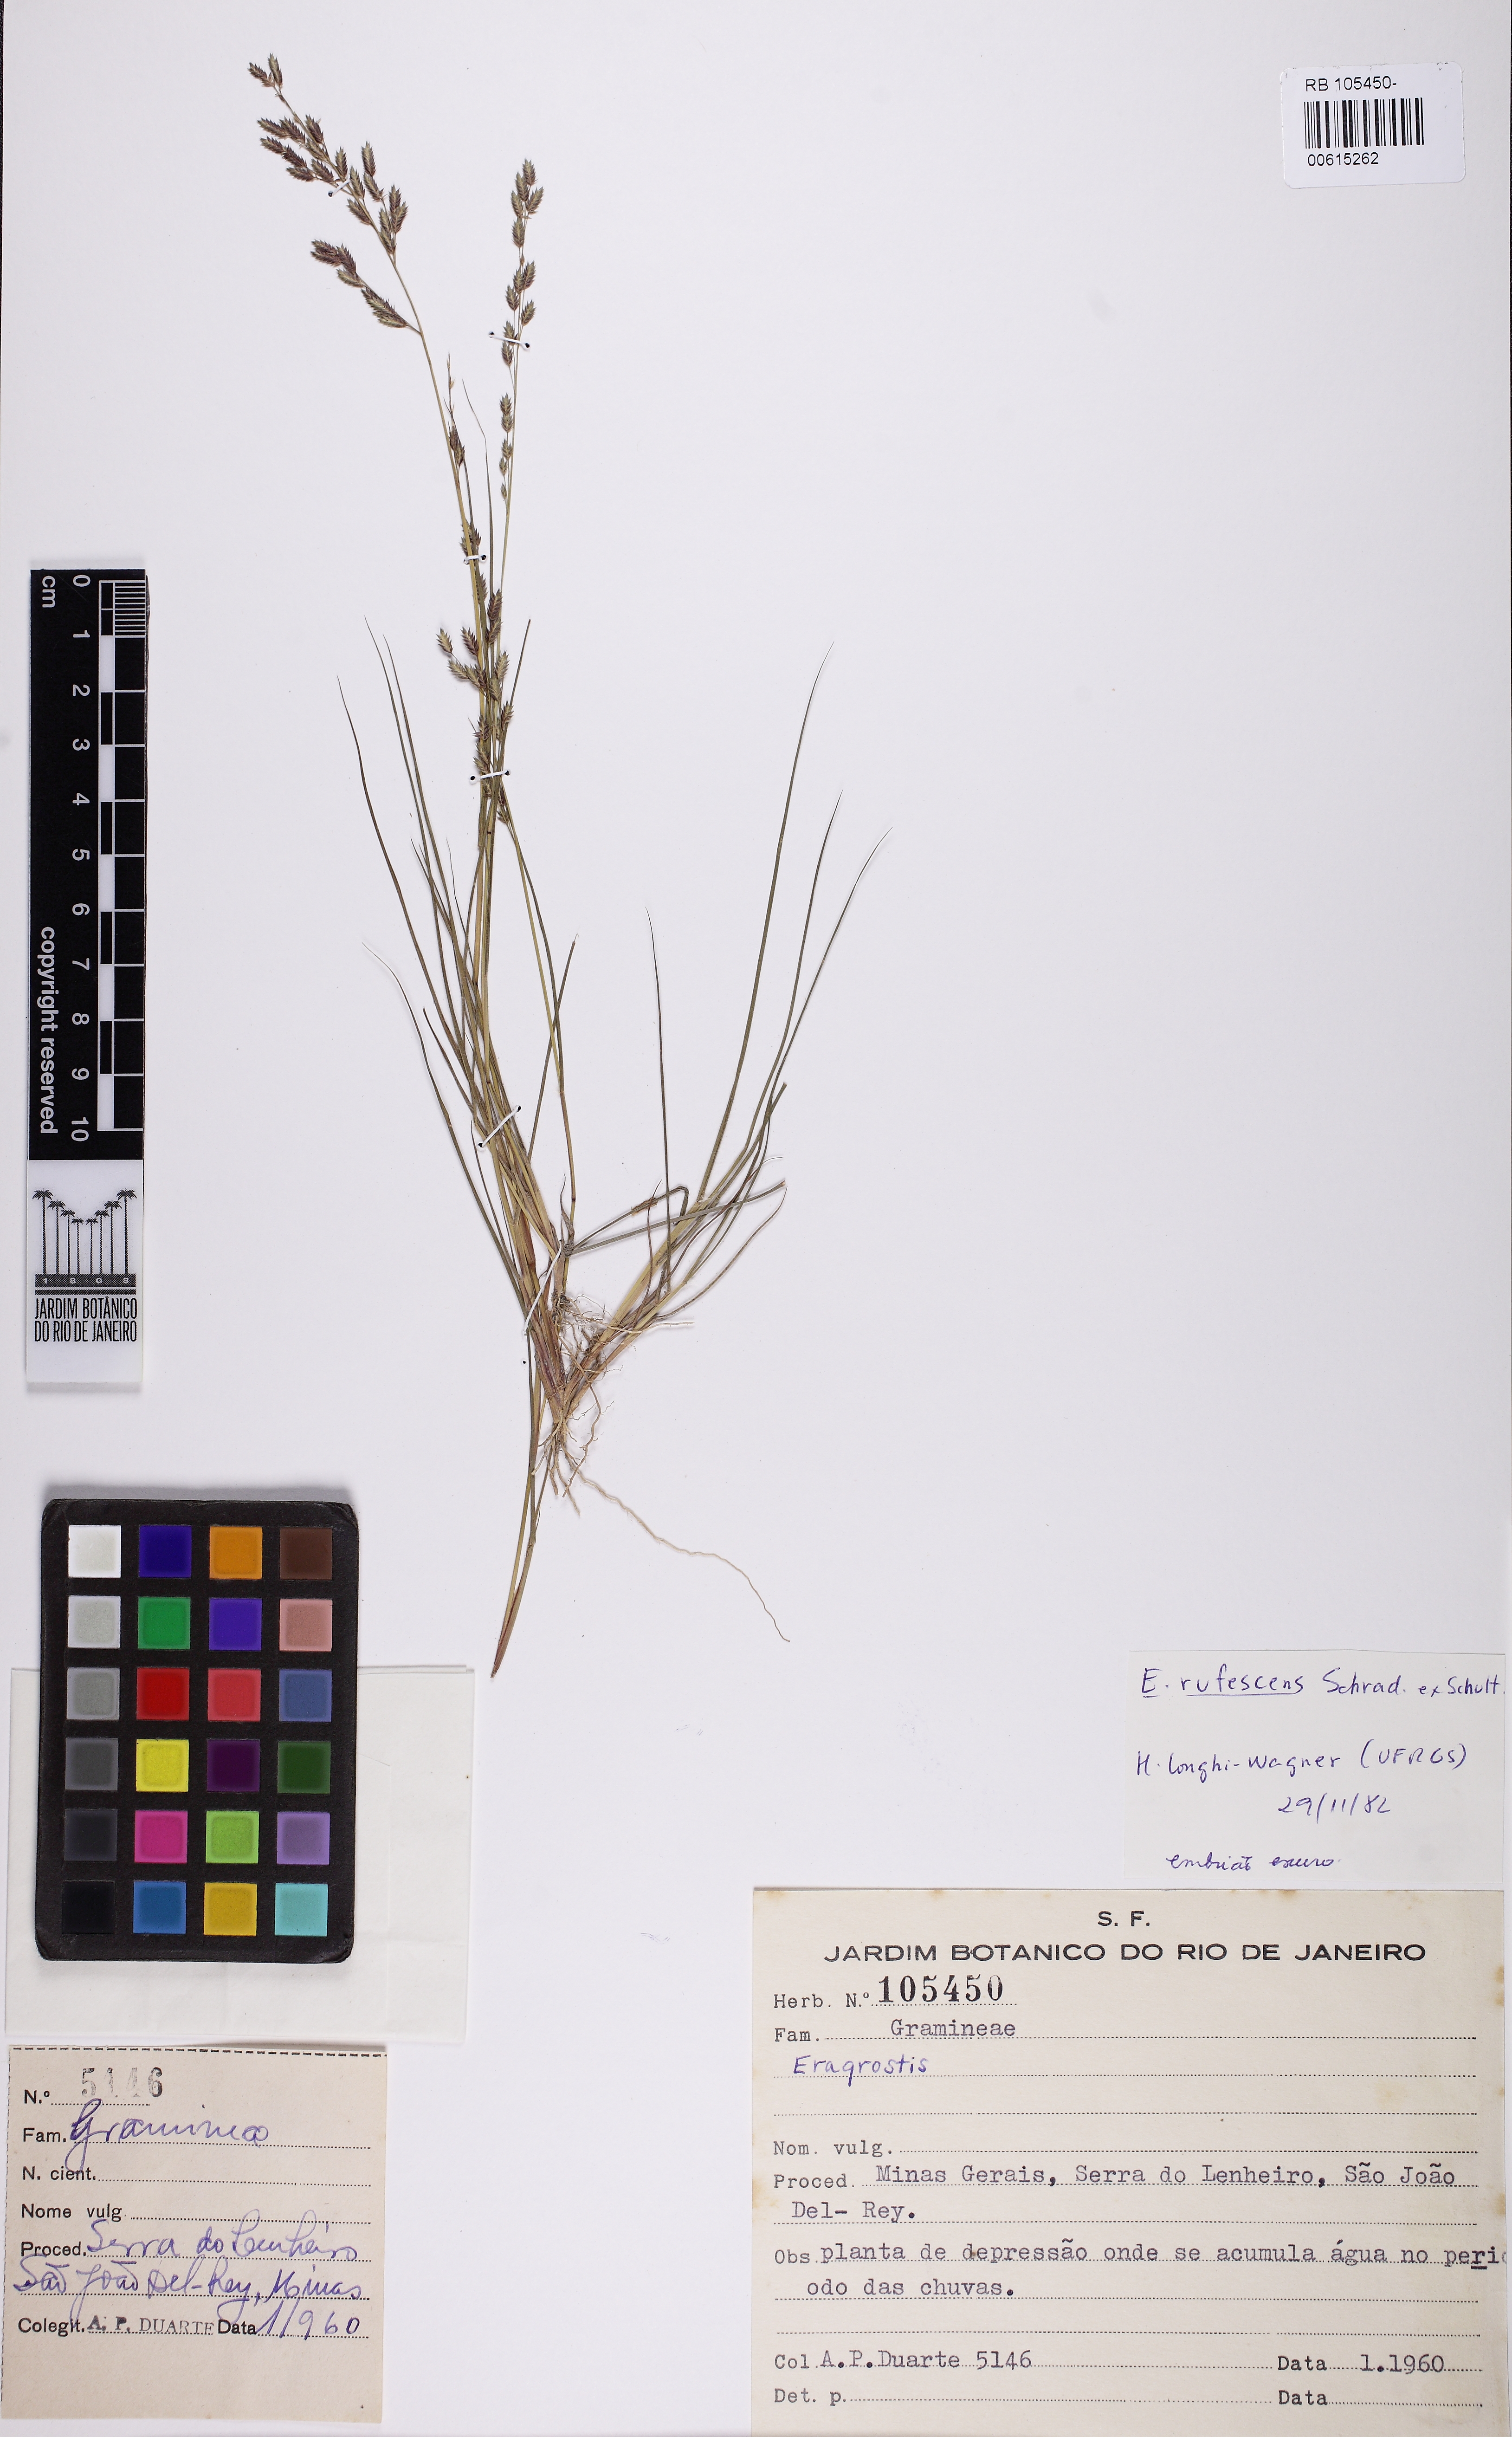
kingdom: Plantae
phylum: Tracheophyta
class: Liliopsida
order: Poales
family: Poaceae
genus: Eragrostis
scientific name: Eragrostis rufescens
